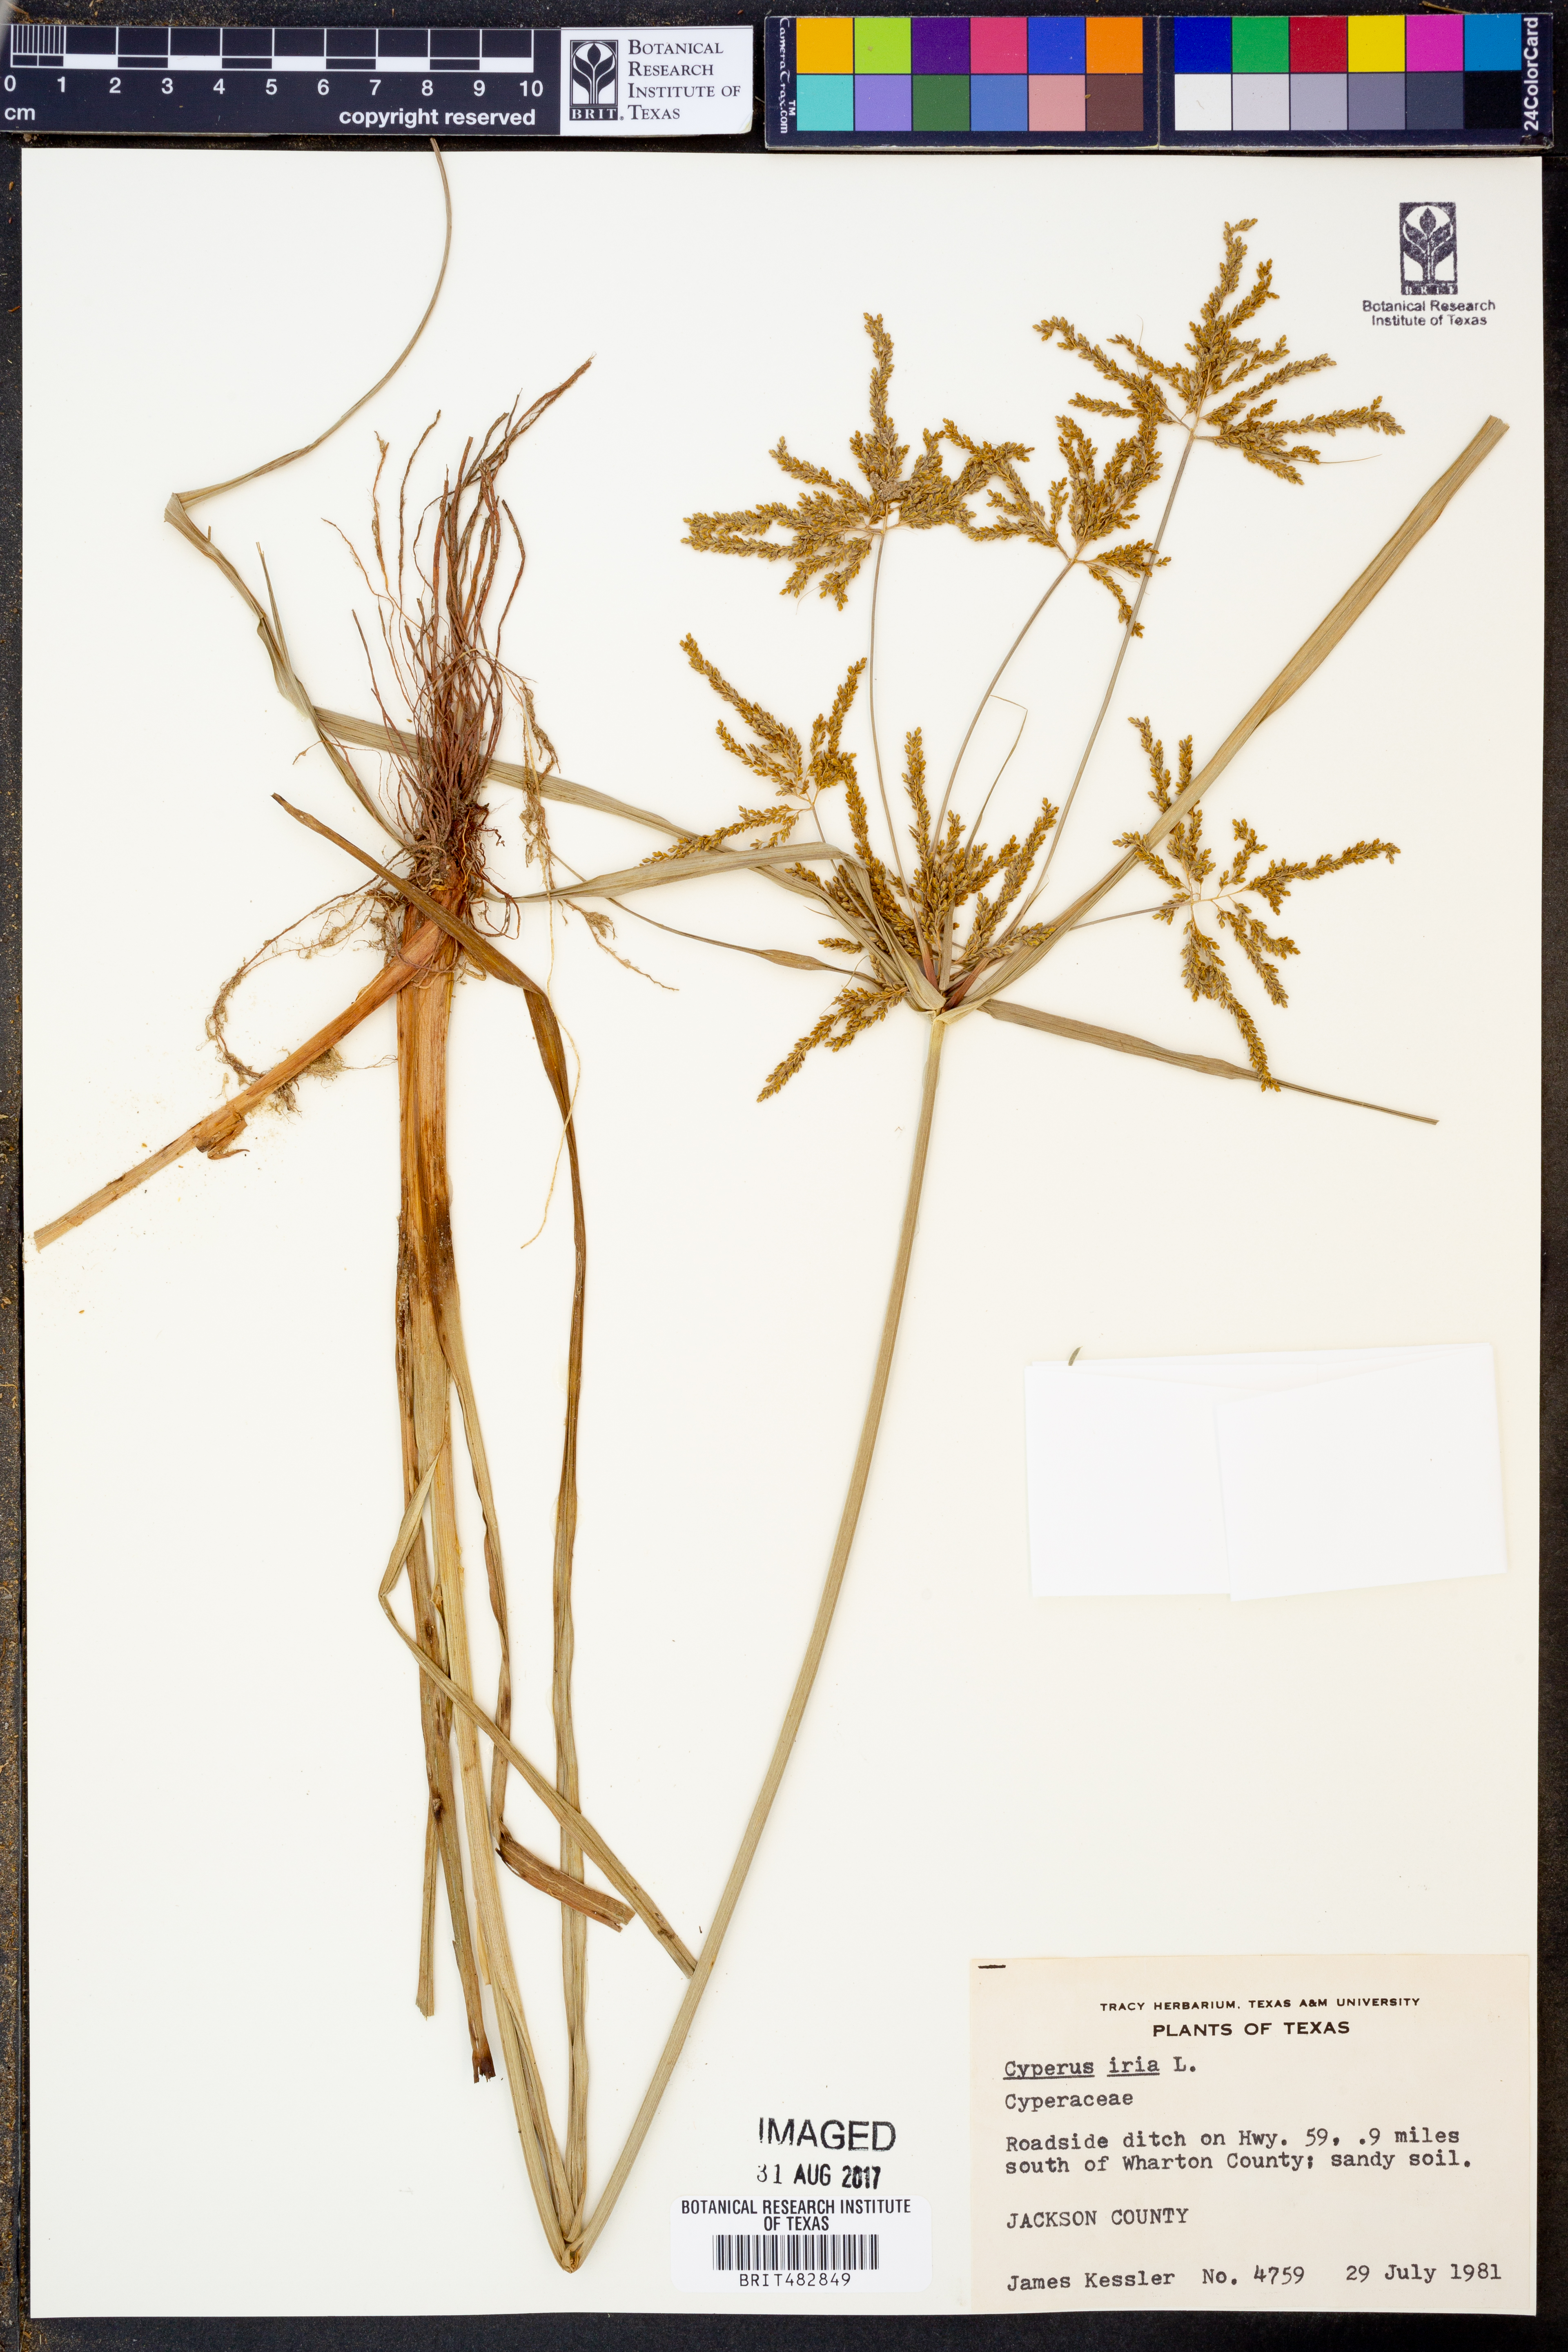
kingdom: Plantae
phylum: Tracheophyta
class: Liliopsida
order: Poales
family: Cyperaceae
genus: Cyperus
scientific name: Cyperus iria
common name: Ricefield flatsedge
